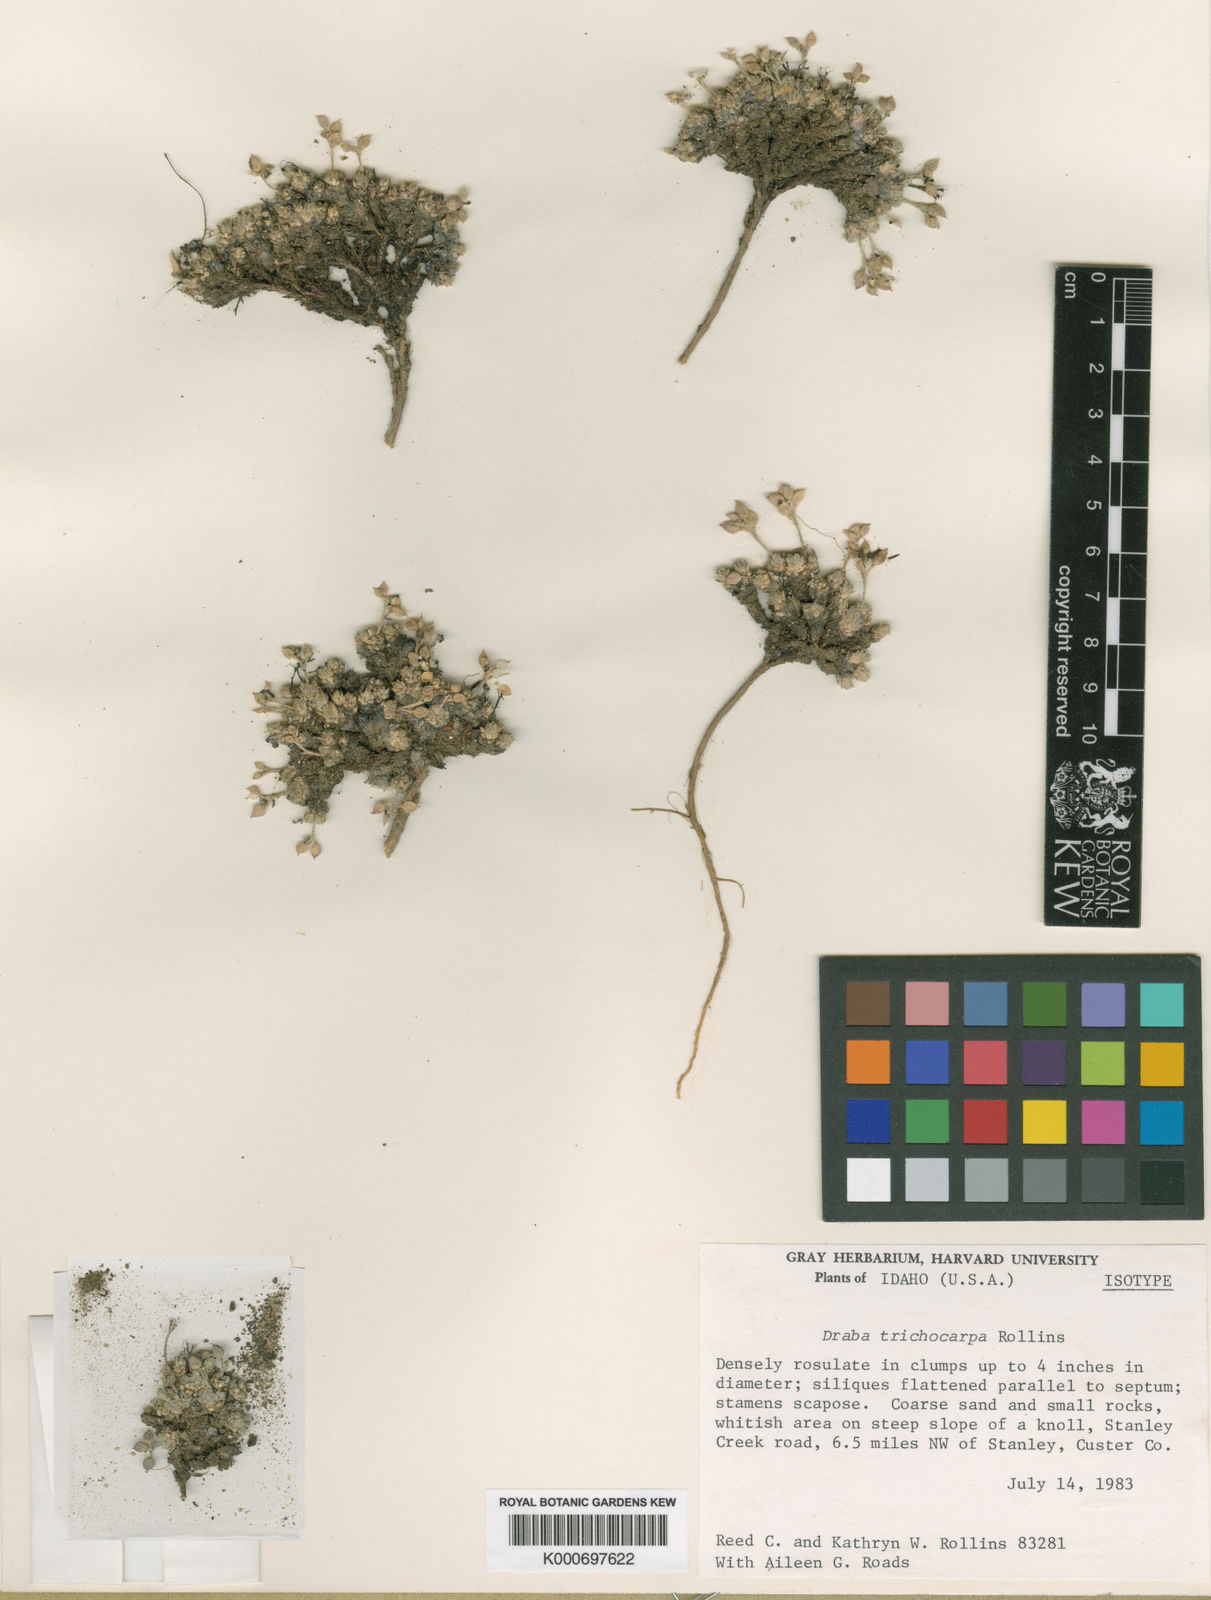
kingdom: Plantae
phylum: Tracheophyta
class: Magnoliopsida
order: Brassicales
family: Brassicaceae
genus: Draba
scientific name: Draba trichocarpa
